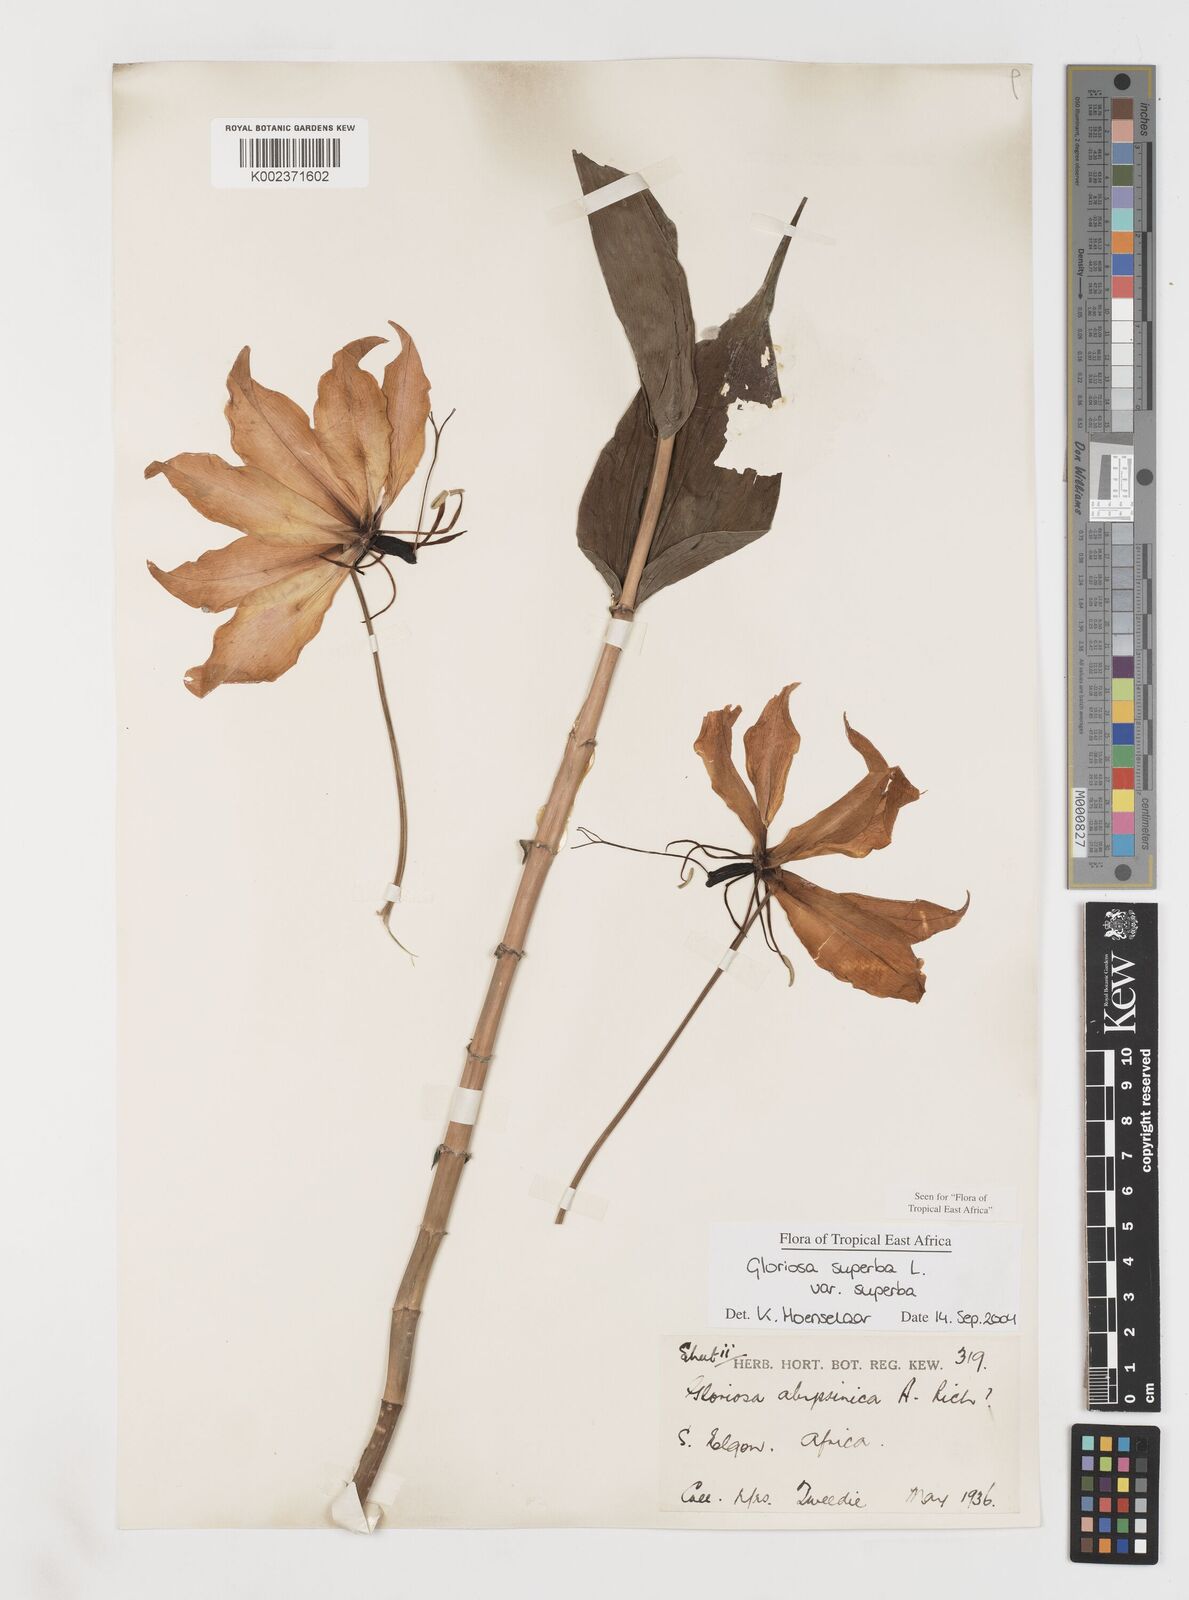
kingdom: Plantae
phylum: Tracheophyta
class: Liliopsida
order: Liliales
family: Colchicaceae
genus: Gloriosa
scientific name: Gloriosa simplex
